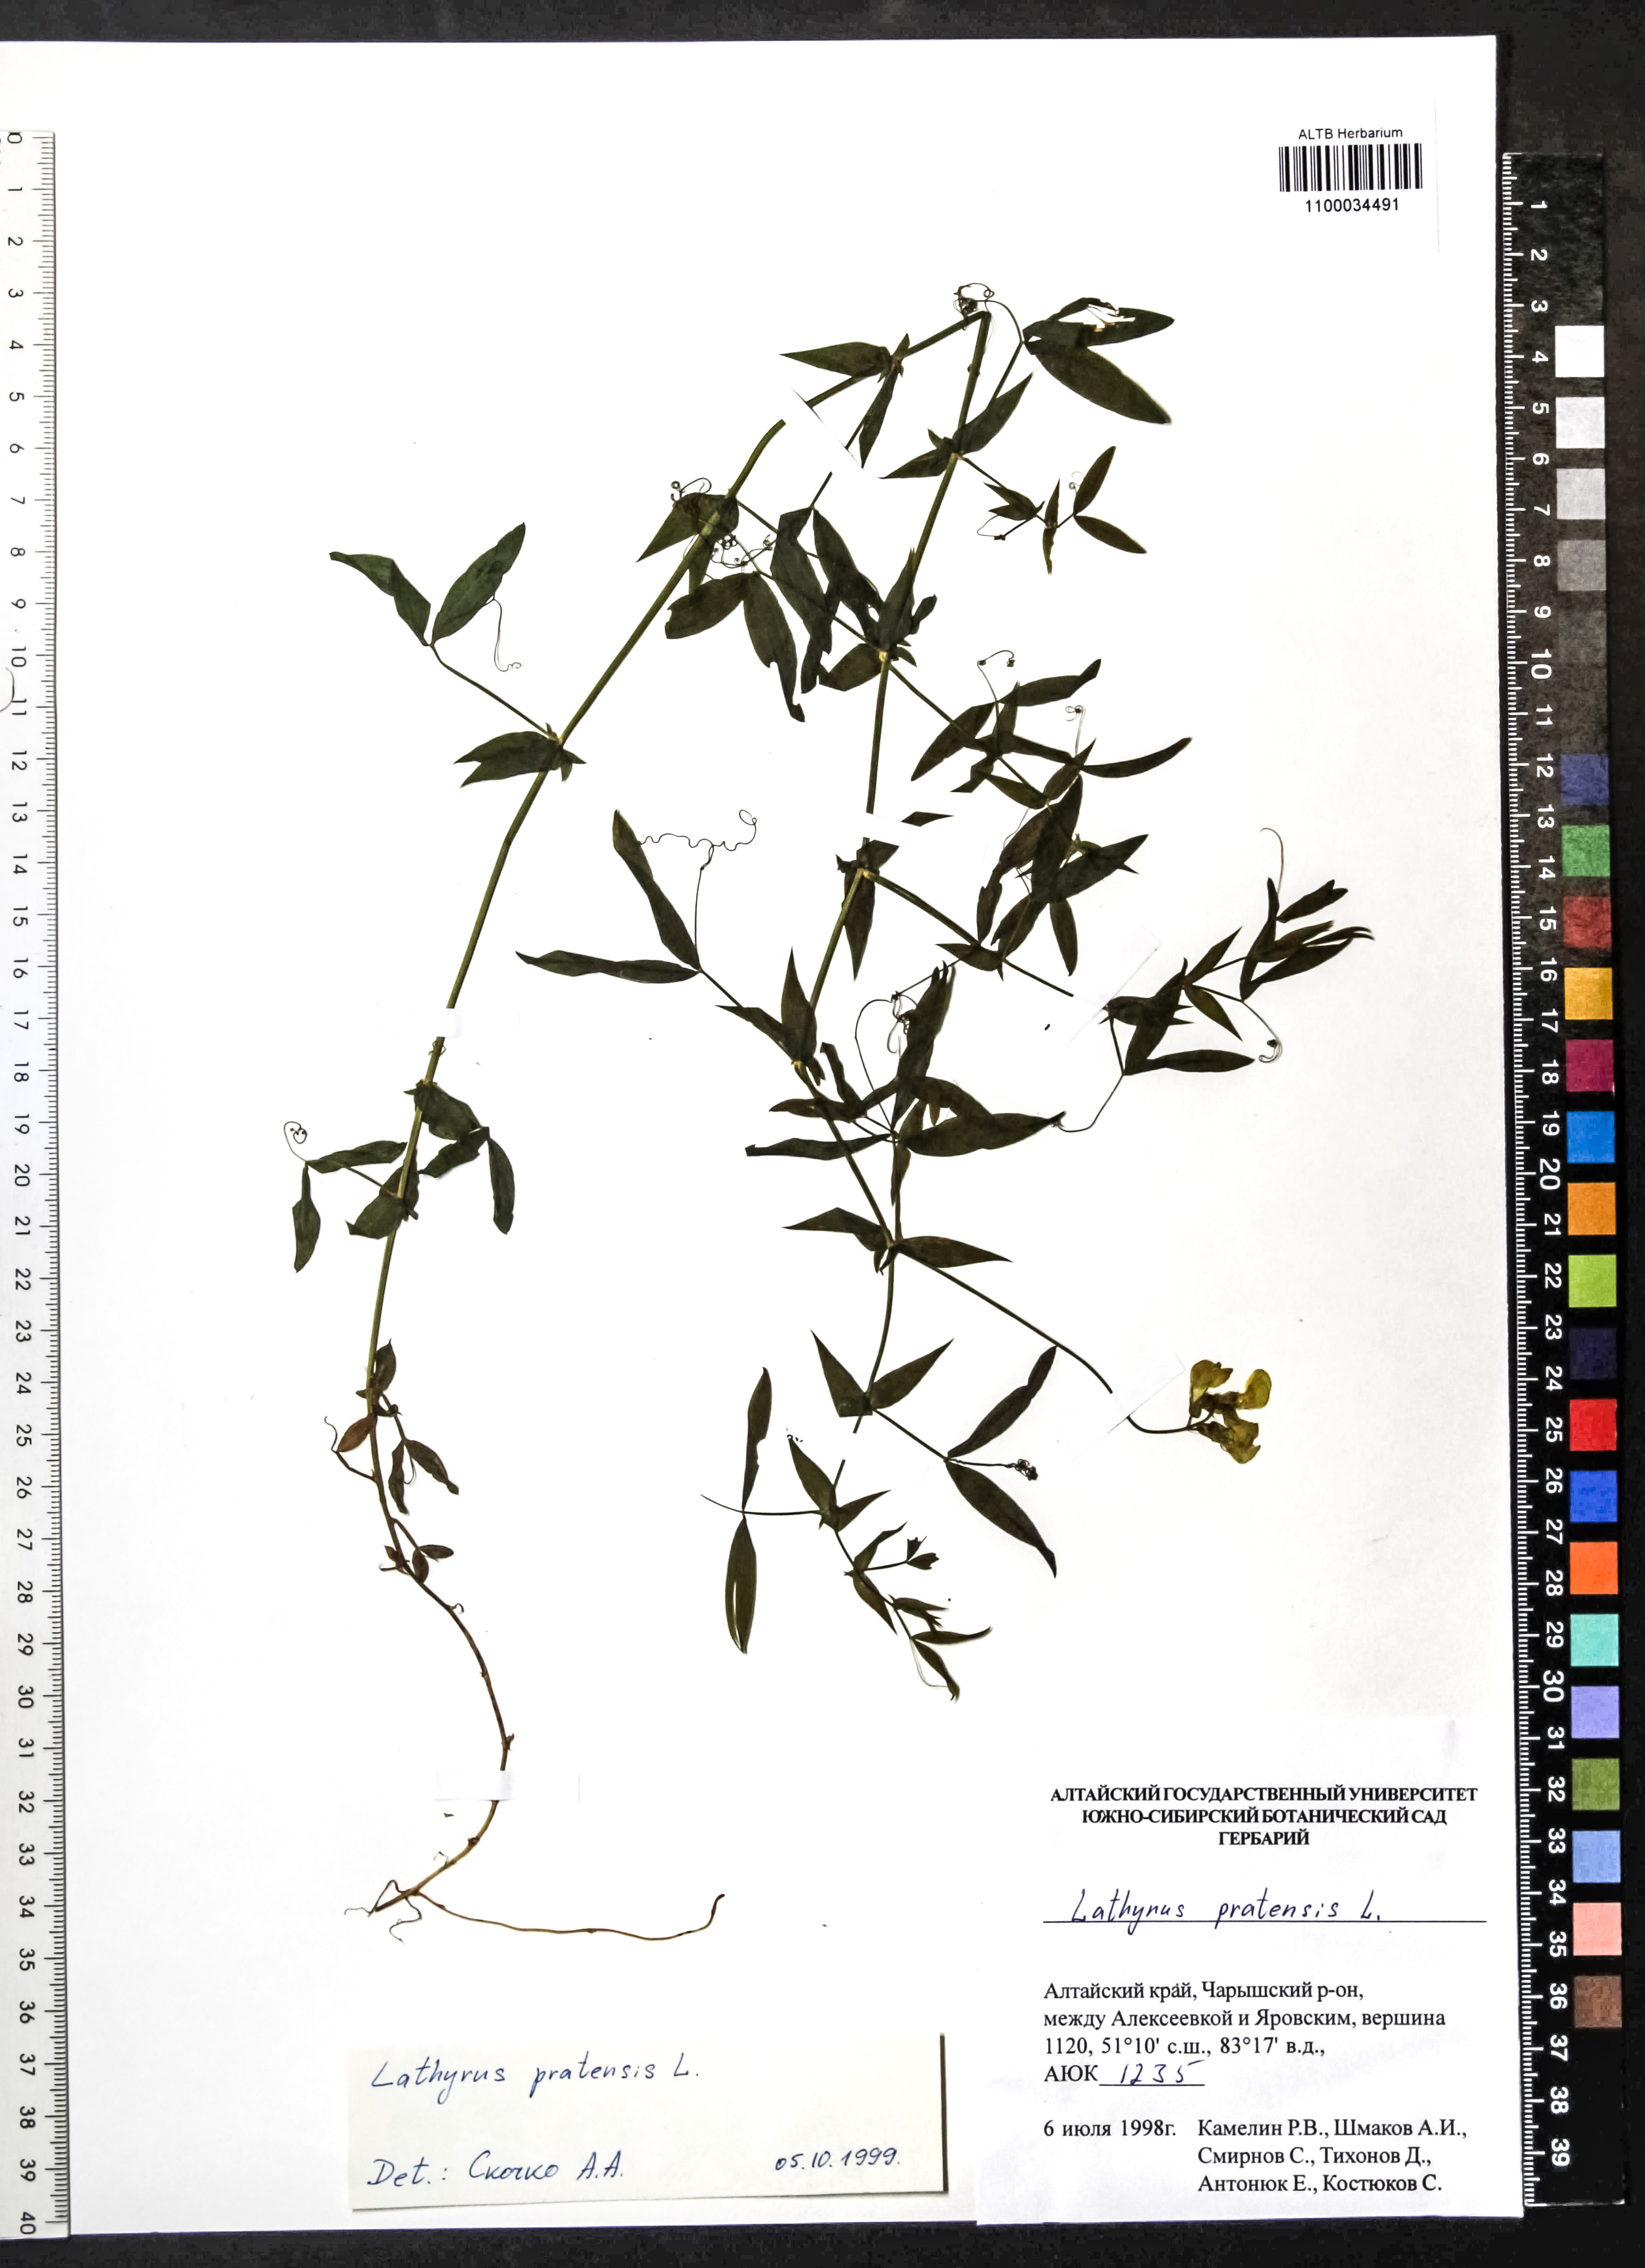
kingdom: Plantae
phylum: Tracheophyta
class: Magnoliopsida
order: Fabales
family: Fabaceae
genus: Lathyrus
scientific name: Lathyrus pratensis
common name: Meadow vetchling
